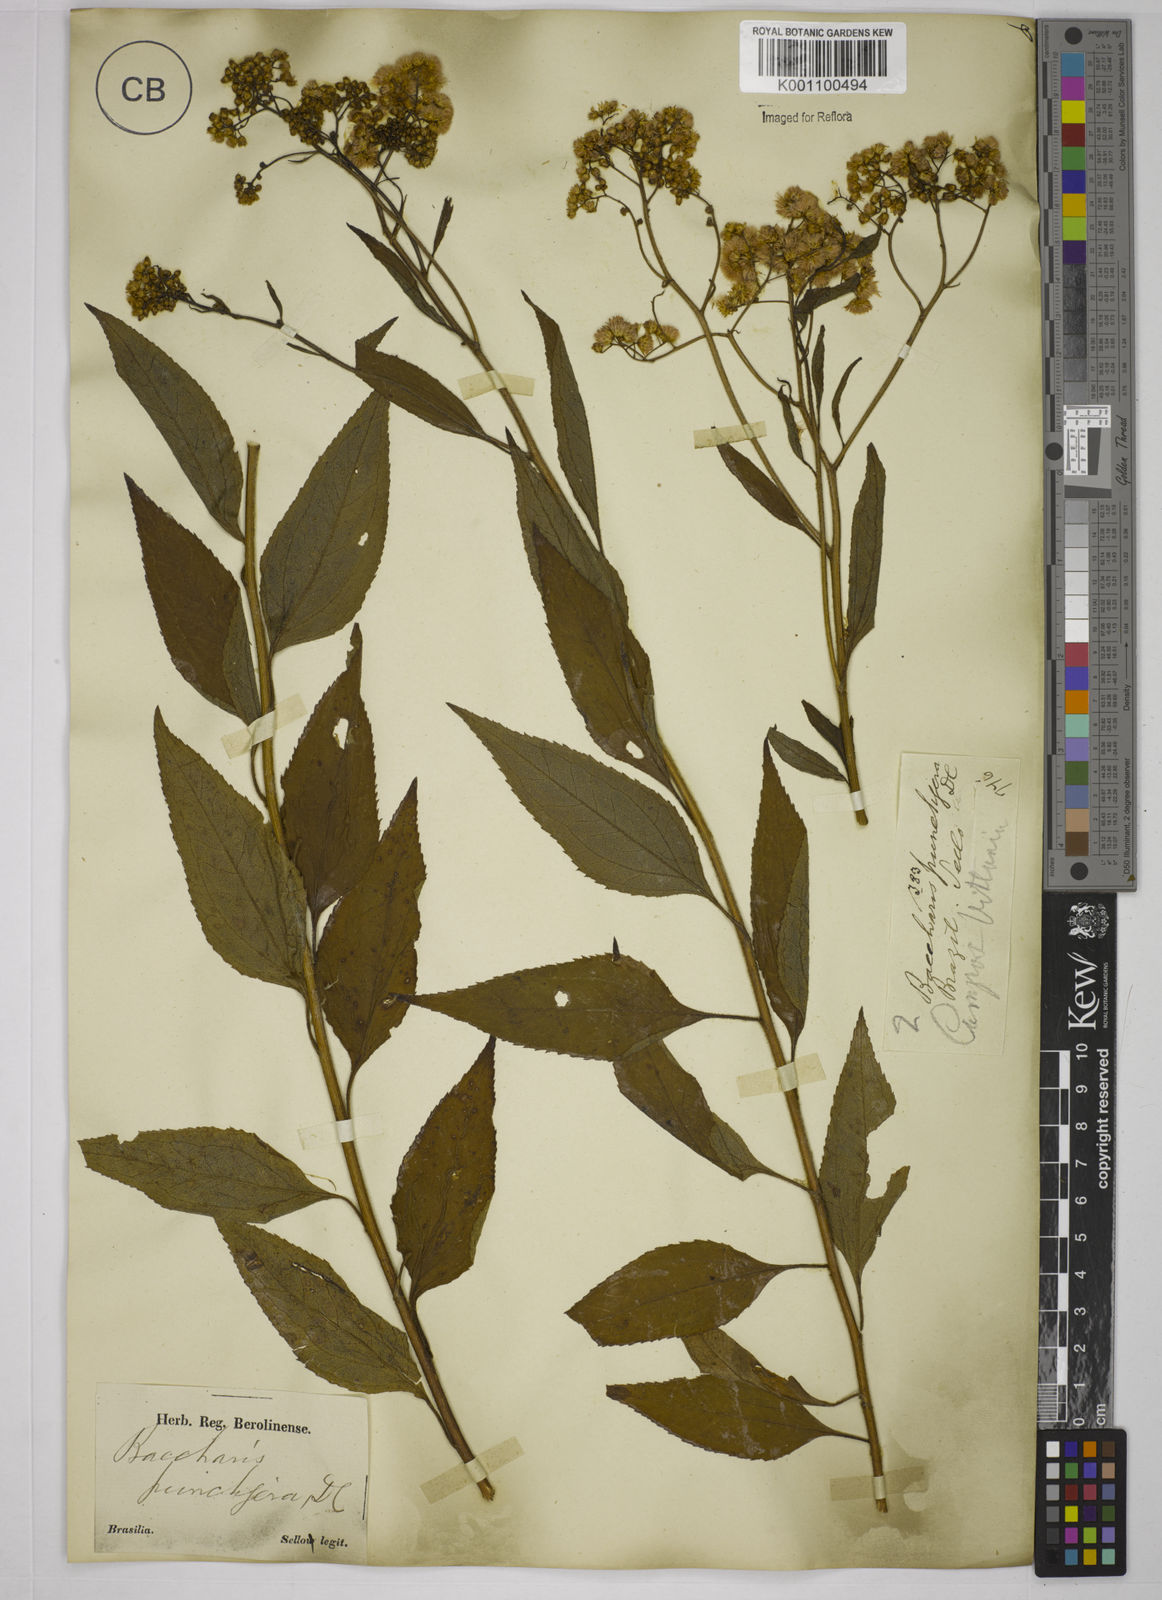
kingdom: Plantae
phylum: Tracheophyta
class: Magnoliopsida
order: Asterales
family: Asteraceae
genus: Baccharis
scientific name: Baccharis serrulata
